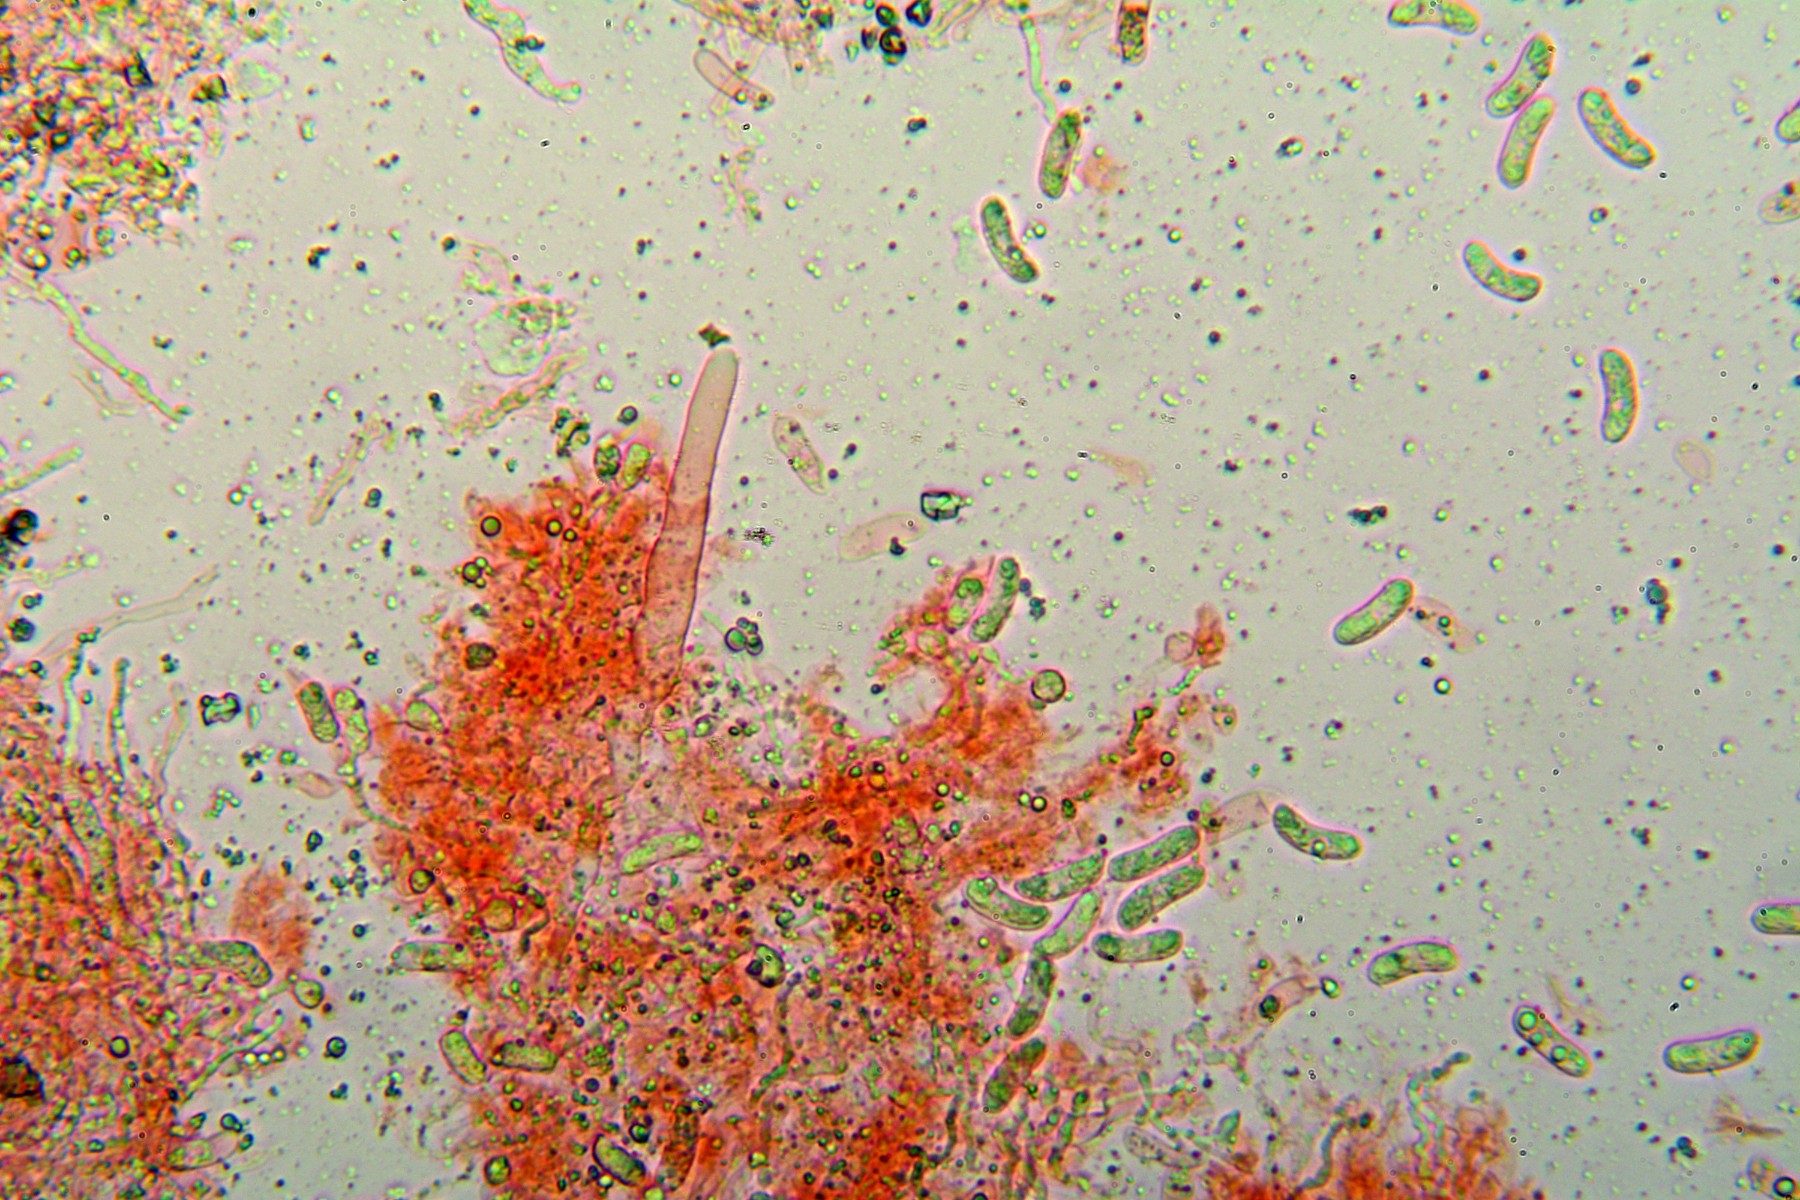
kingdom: Fungi
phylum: Basidiomycota
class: Agaricomycetes
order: Corticiales
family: Vuilleminiaceae
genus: Vuilleminia
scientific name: Vuilleminia coryli
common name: hassel-barksprænger
